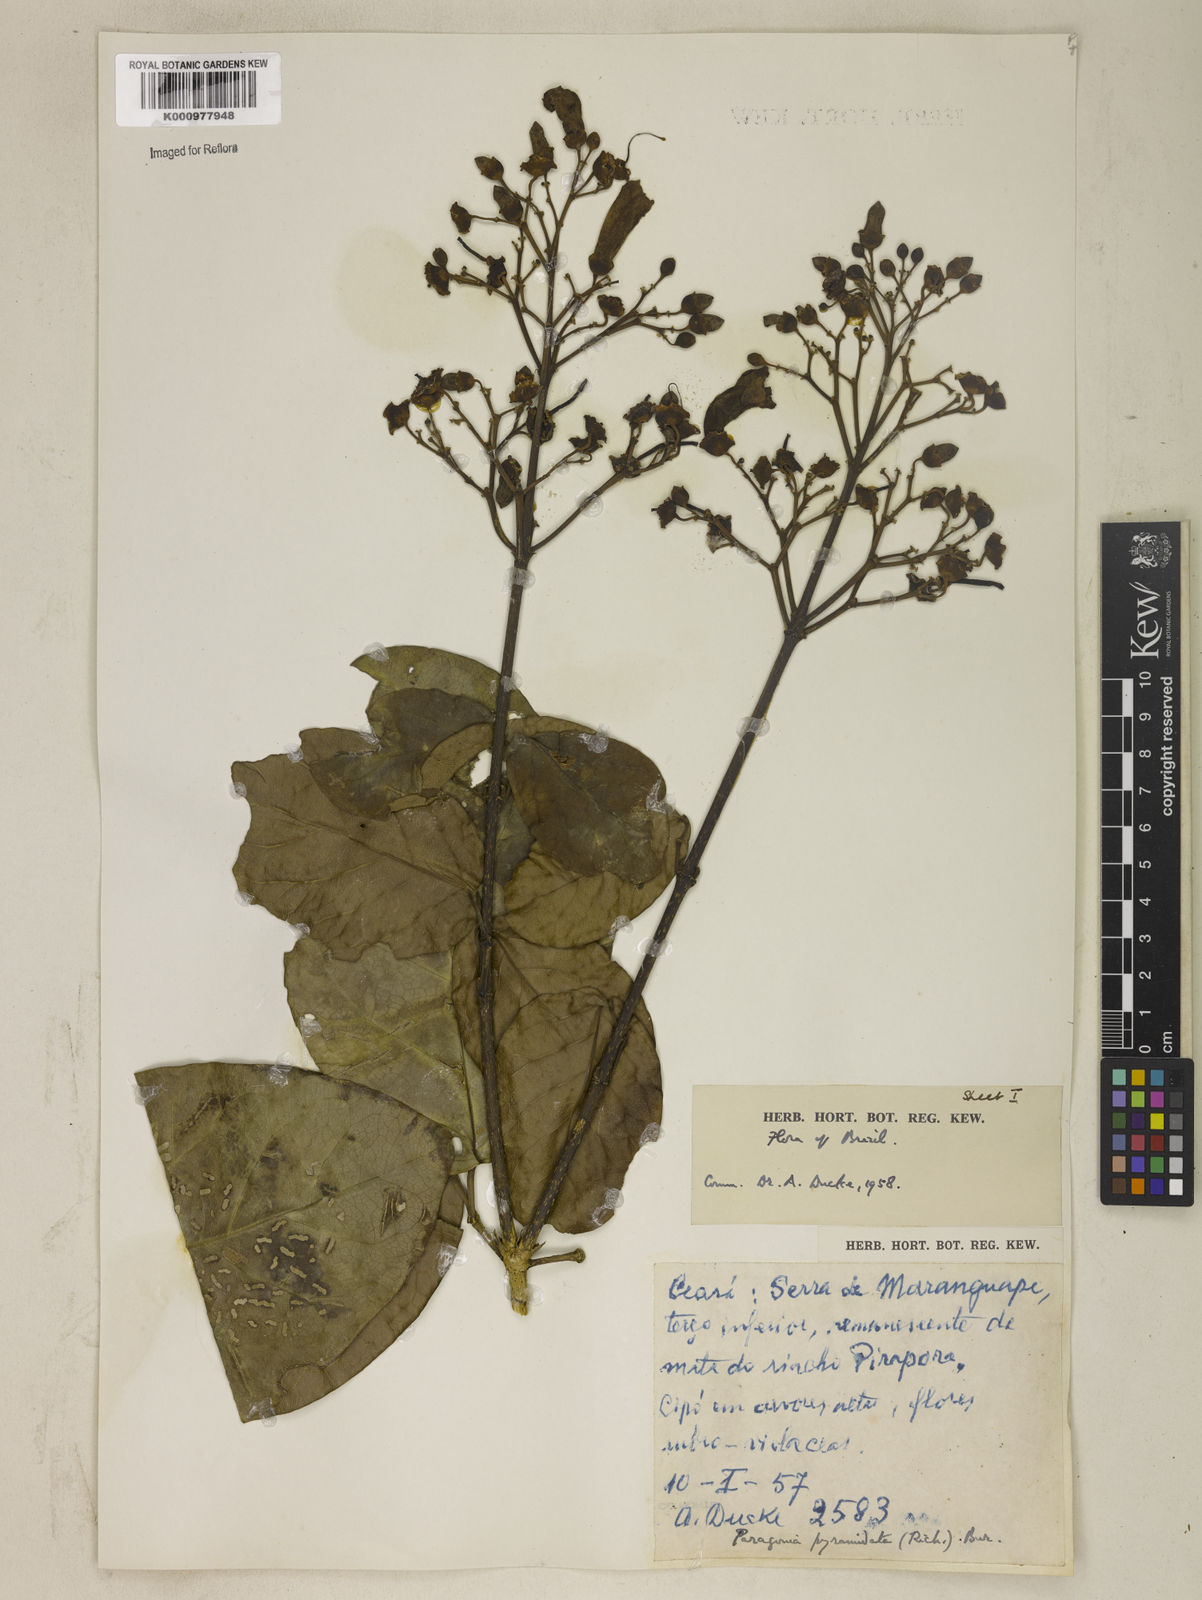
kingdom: Plantae
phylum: Tracheophyta
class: Magnoliopsida
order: Lamiales
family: Bignoniaceae
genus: Tanaecium
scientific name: Tanaecium pyramidatum
